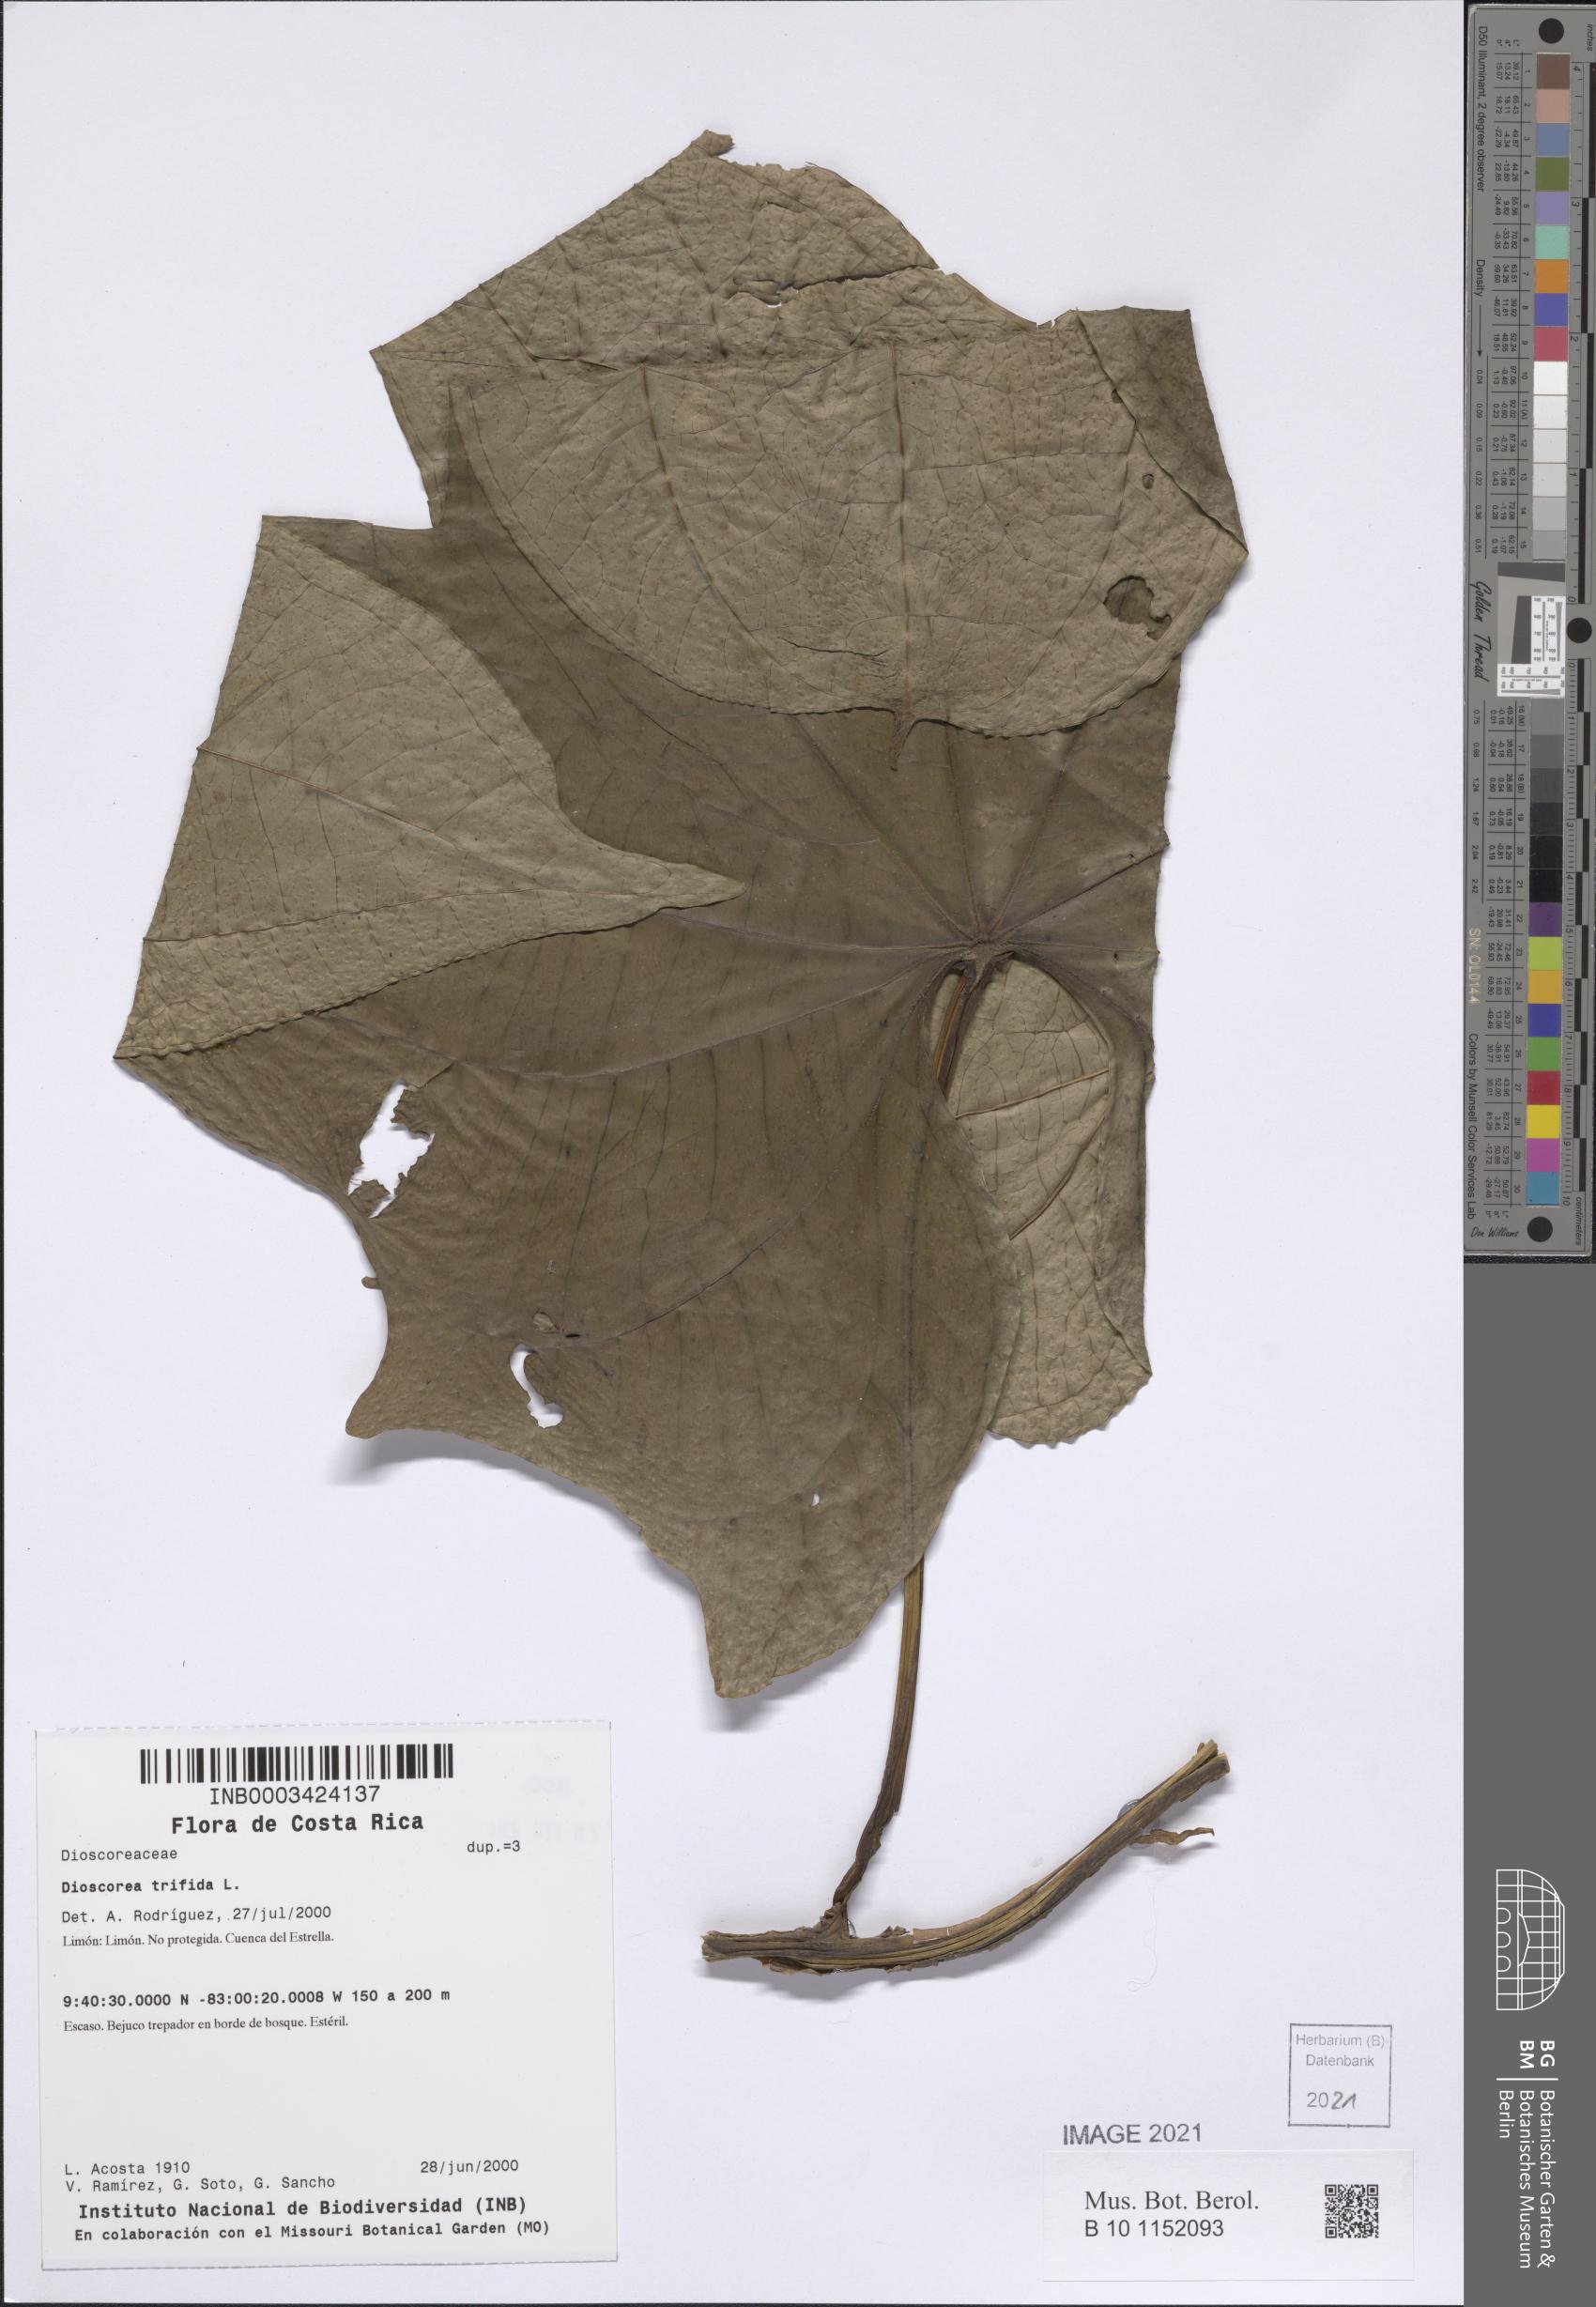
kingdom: Plantae
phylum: Tracheophyta
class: Liliopsida
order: Dioscoreales
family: Dioscoreaceae
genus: Dioscorea
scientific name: Dioscorea trifida
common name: Cush-cush
